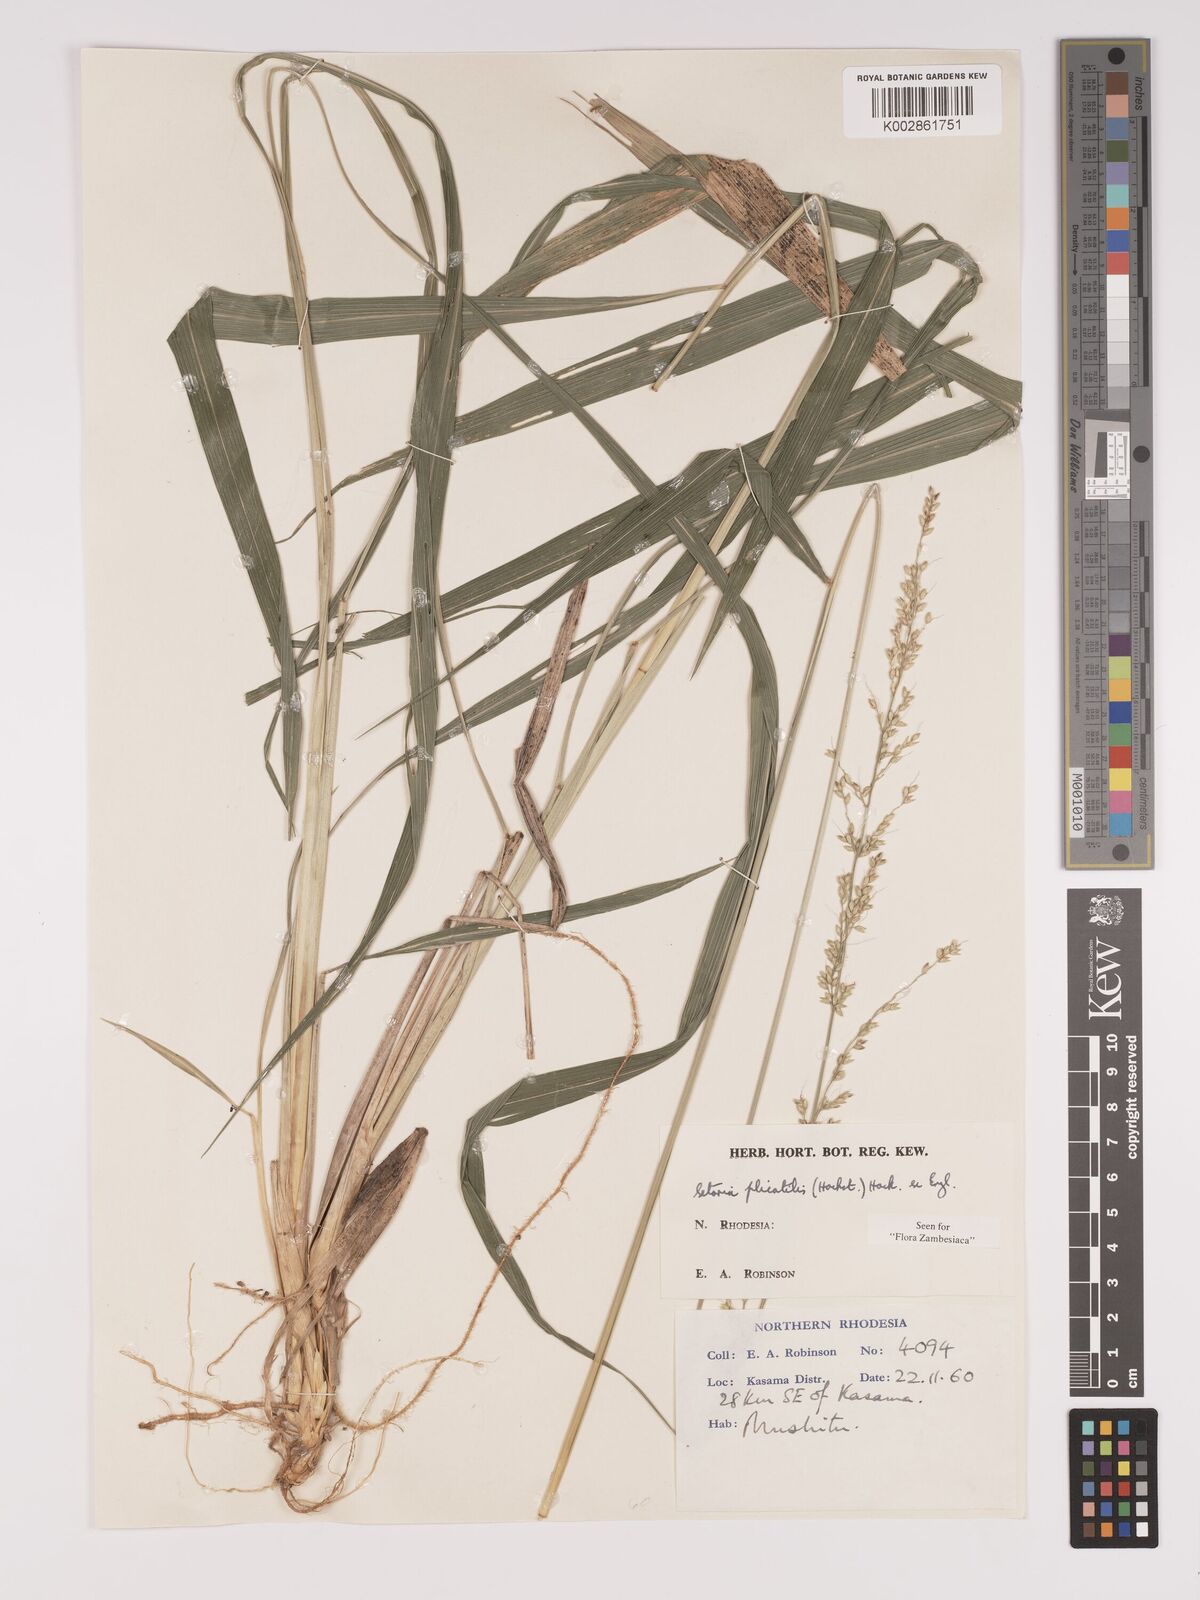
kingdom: Plantae
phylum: Tracheophyta
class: Liliopsida
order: Poales
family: Poaceae
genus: Setaria
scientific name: Setaria megaphylla
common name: Bigleaf bristlegrass
